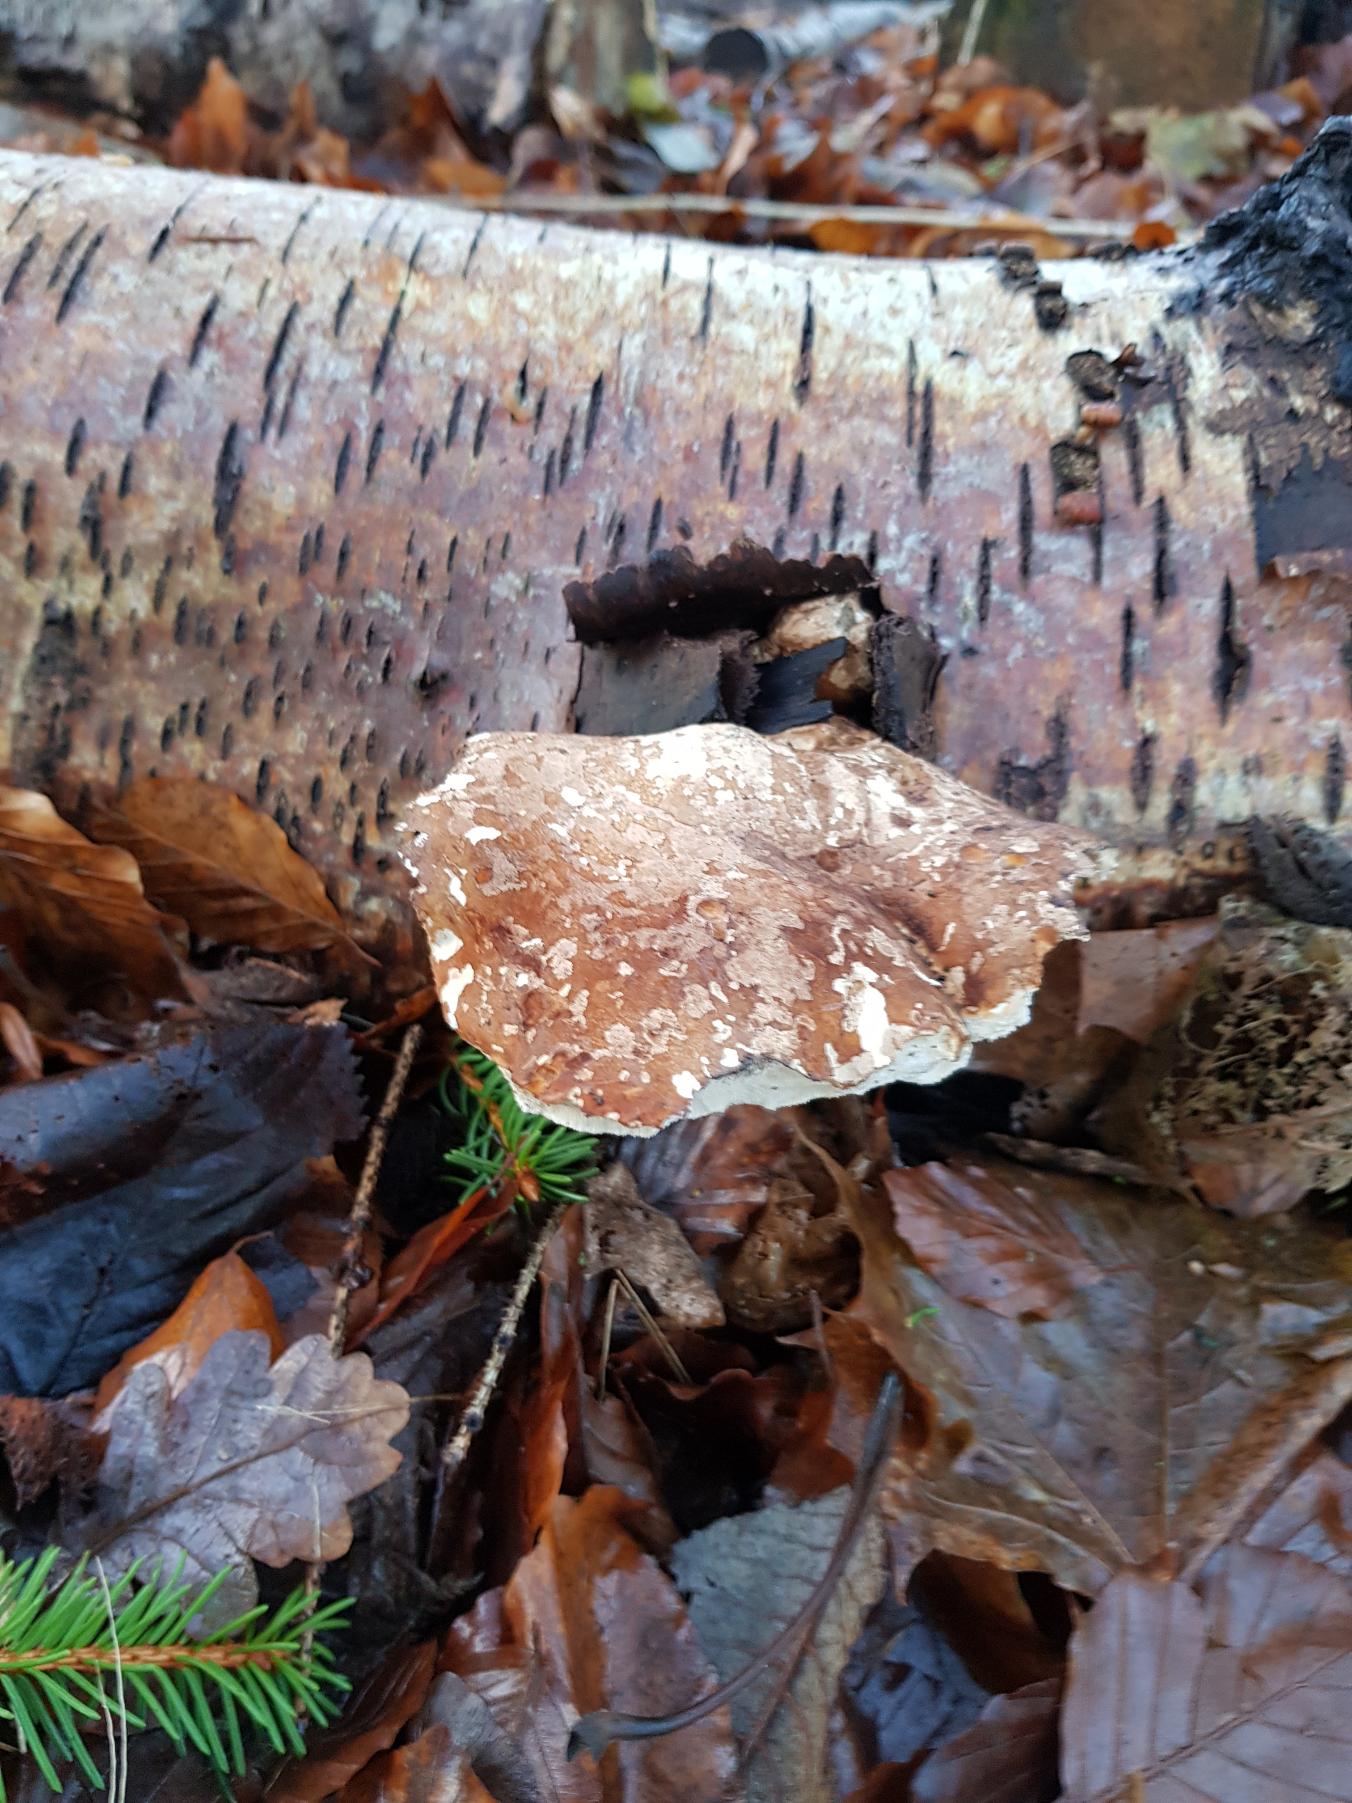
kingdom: Fungi
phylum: Basidiomycota
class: Agaricomycetes
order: Polyporales
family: Fomitopsidaceae
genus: Fomitopsis
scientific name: Fomitopsis betulina
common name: Birkeporesvamp
